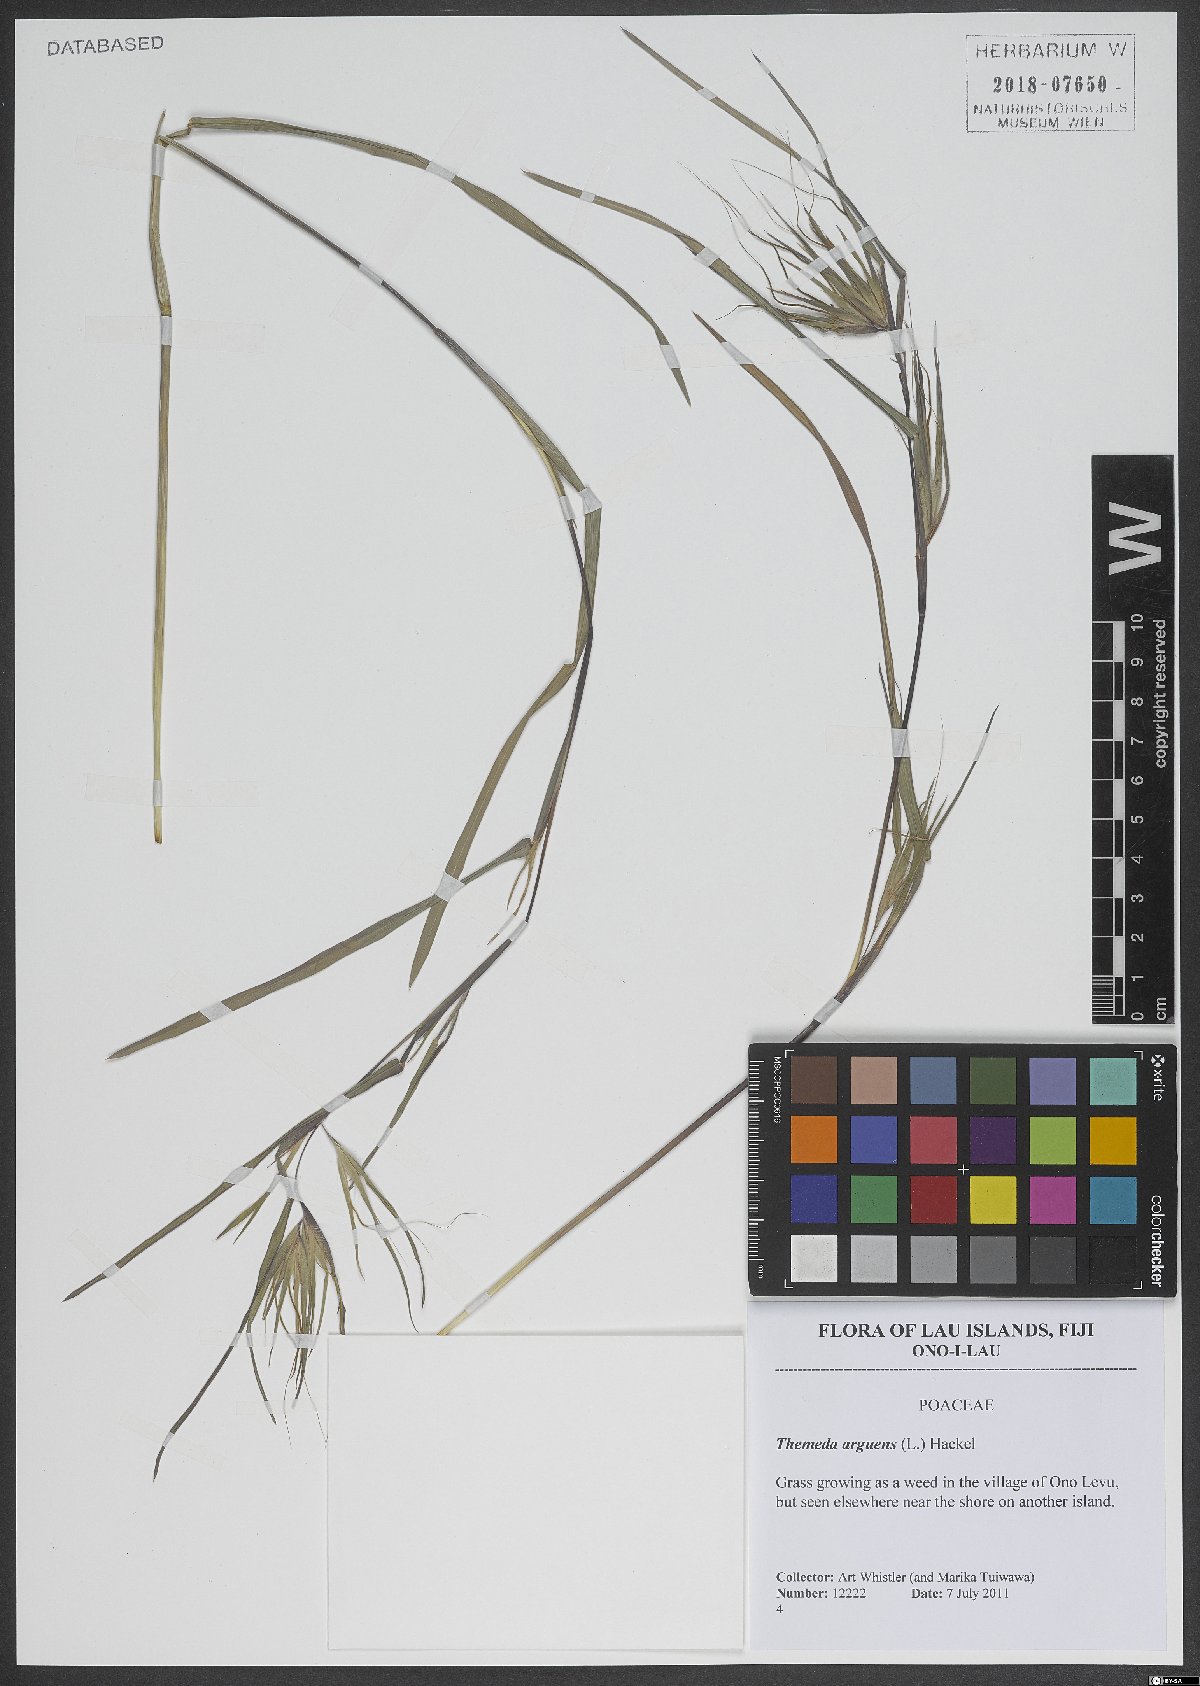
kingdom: Plantae
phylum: Tracheophyta
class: Liliopsida
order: Poales
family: Poaceae
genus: Themeda
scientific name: Themeda arguens
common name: Christmas grass
